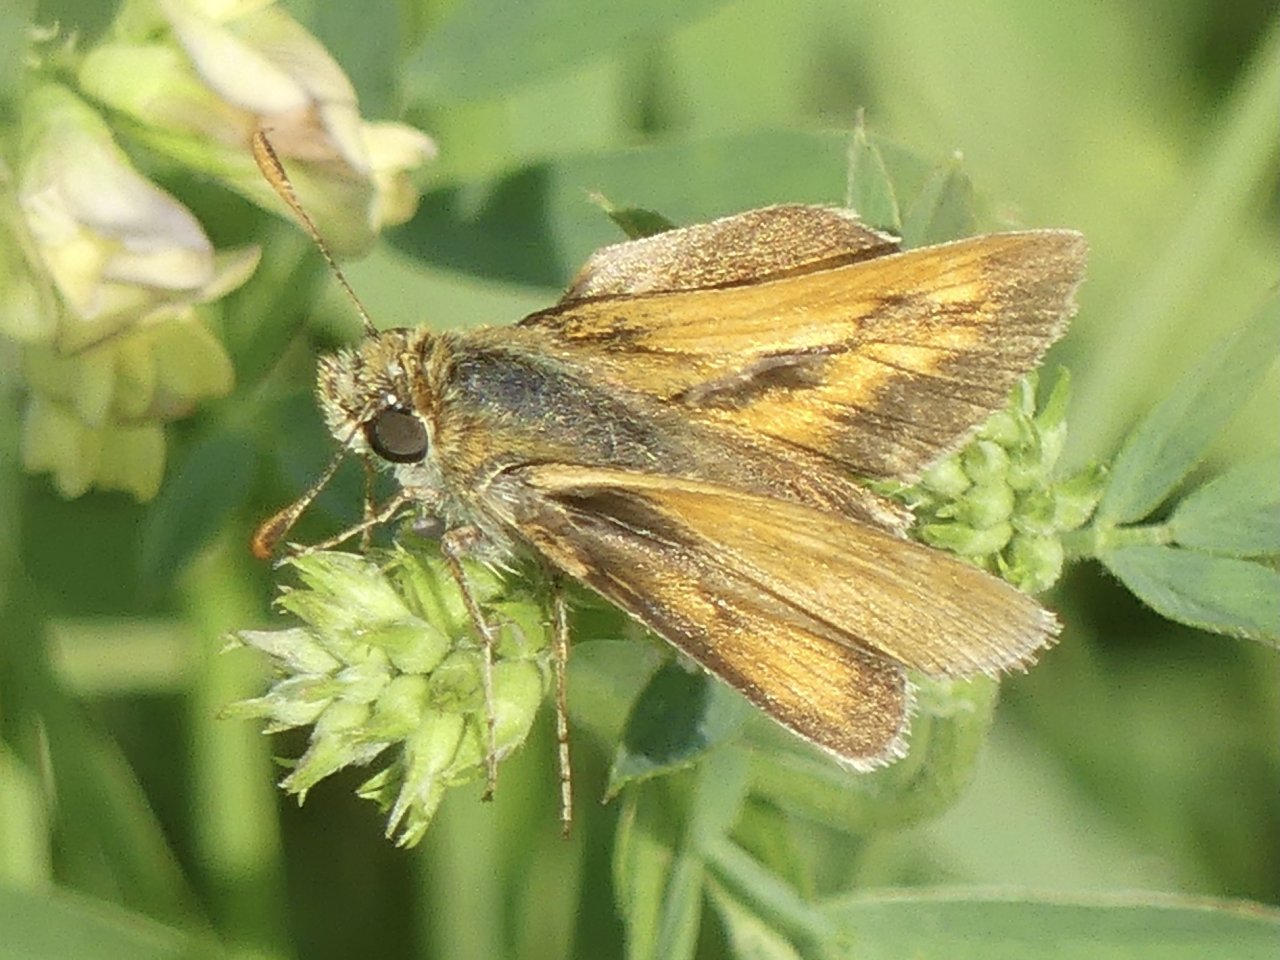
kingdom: Animalia
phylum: Arthropoda
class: Insecta
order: Lepidoptera
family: Hesperiidae
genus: Polites
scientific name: Polites
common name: Long Dash Skipper
